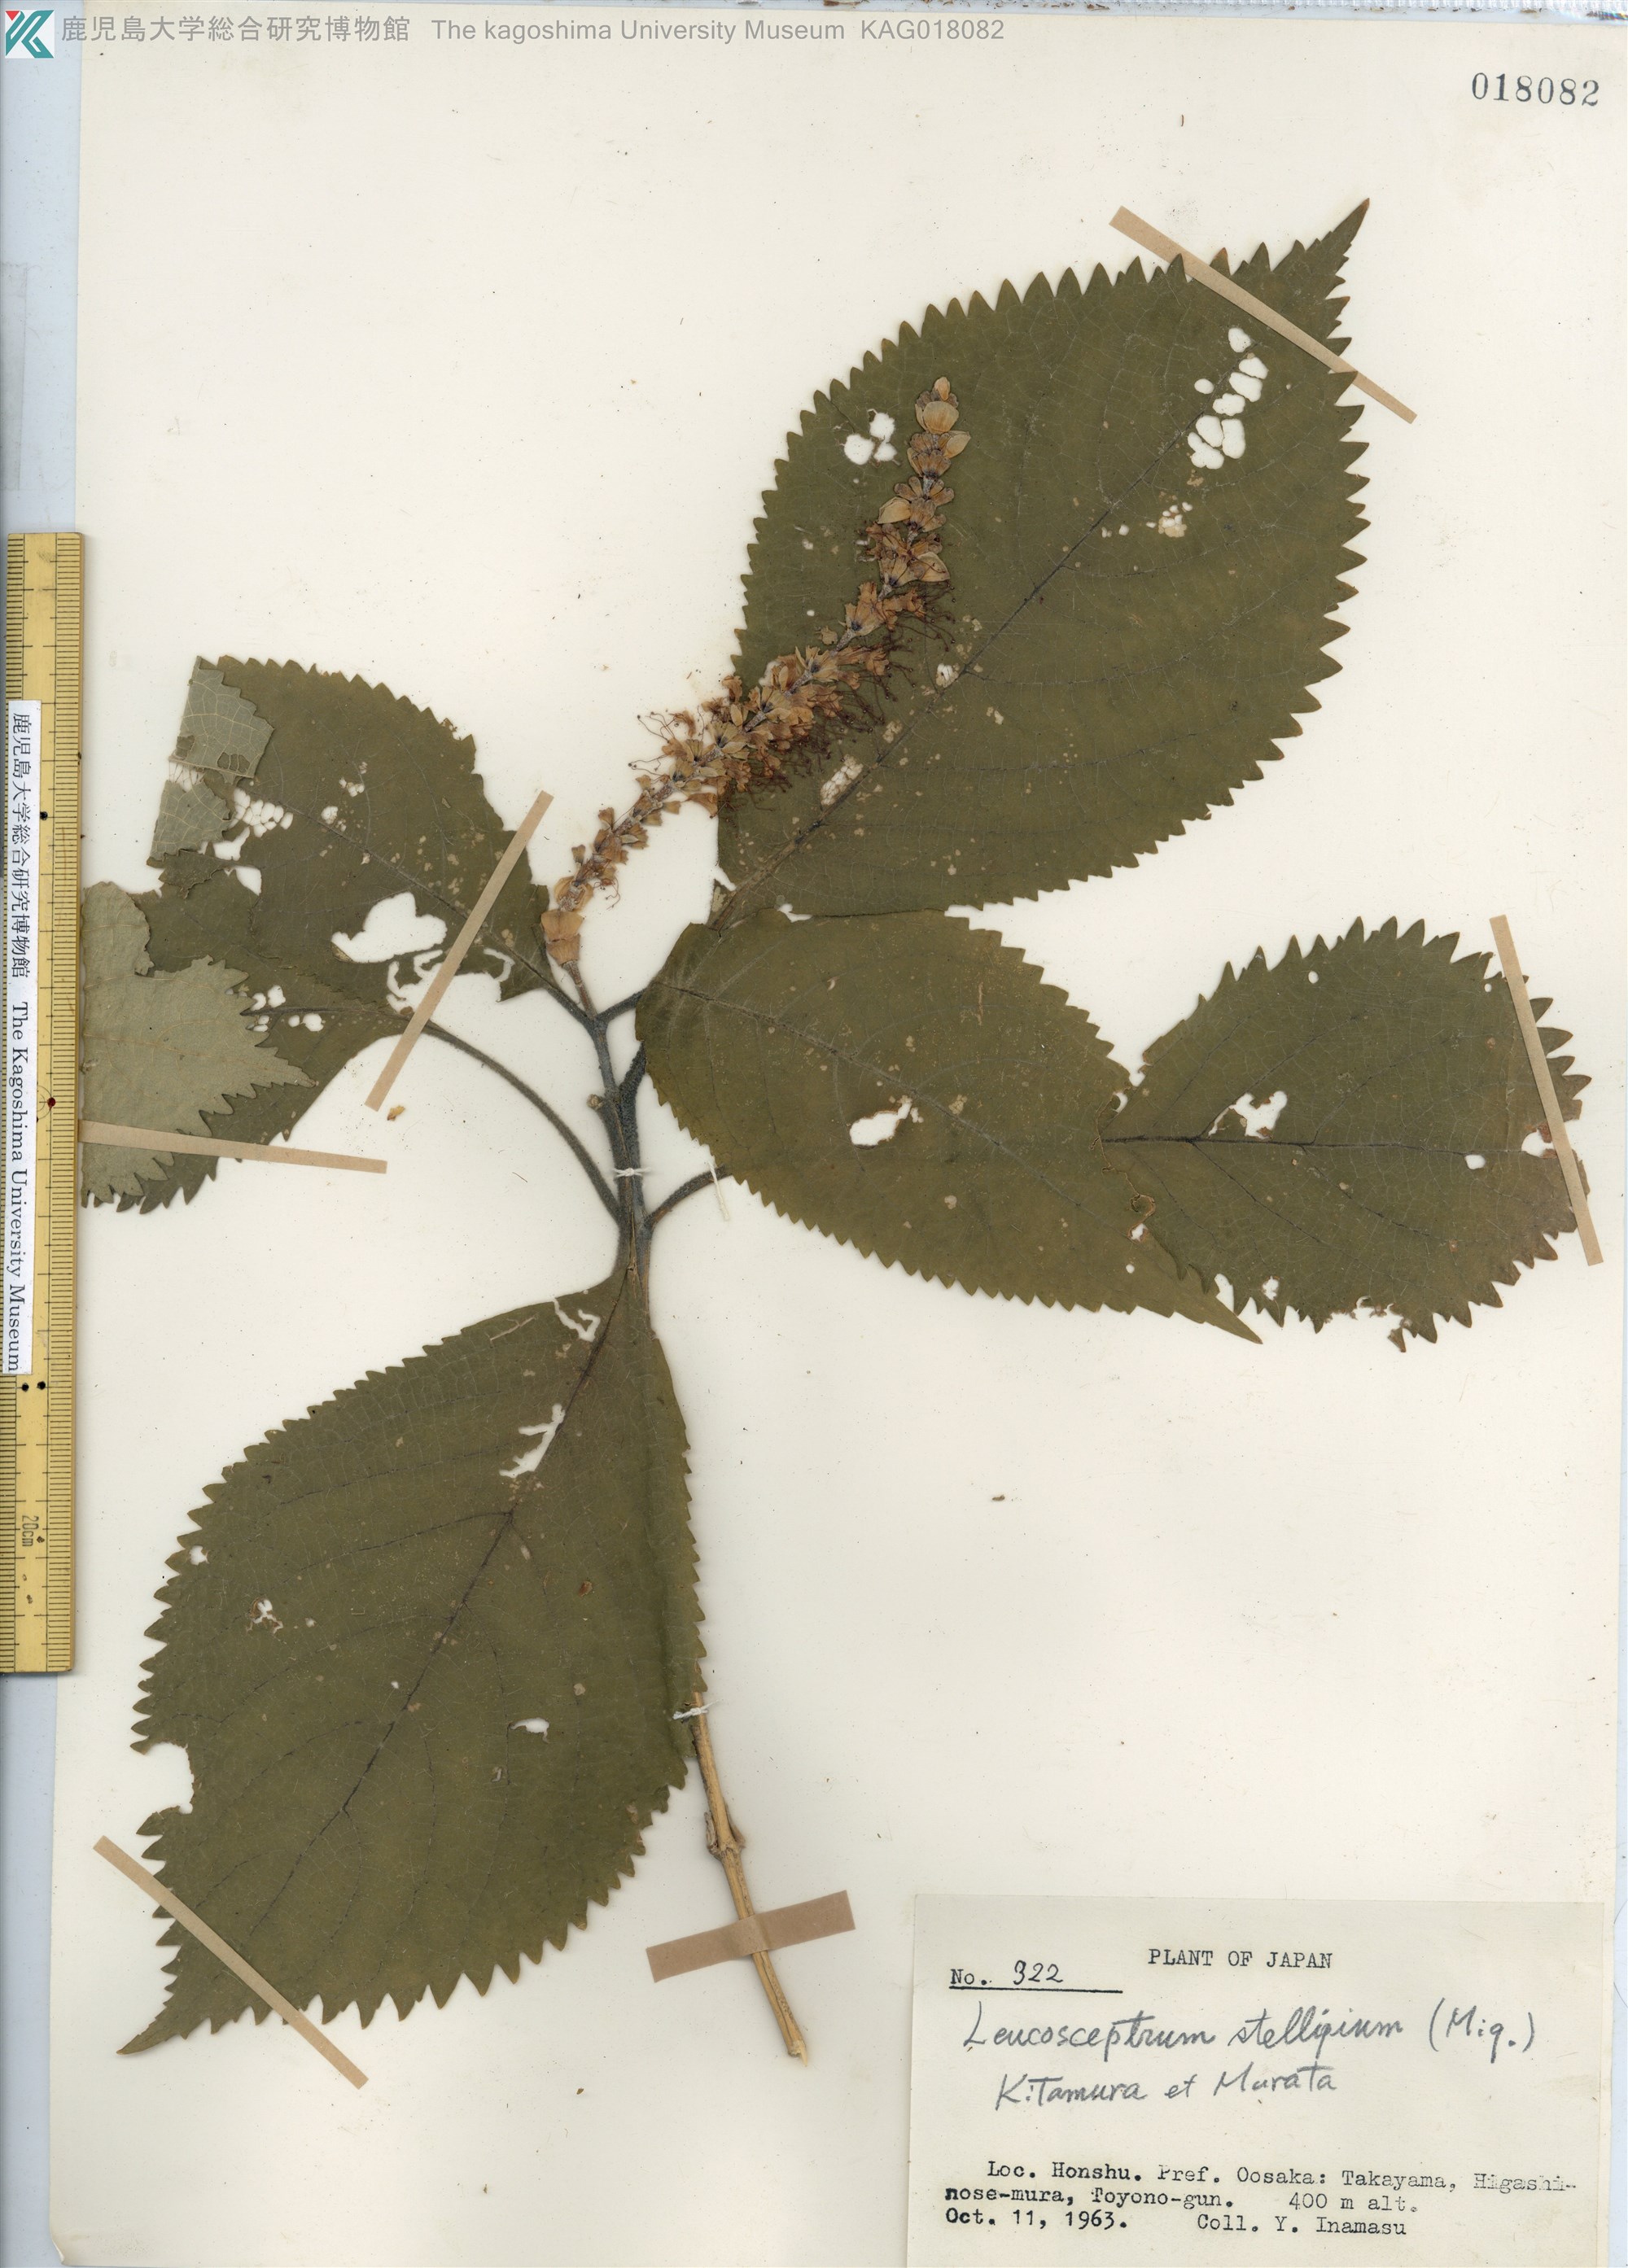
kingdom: Plantae
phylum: Tracheophyta
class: Magnoliopsida
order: Lamiales
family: Lamiaceae
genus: Comanthosphace
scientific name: Comanthosphace stellipila
